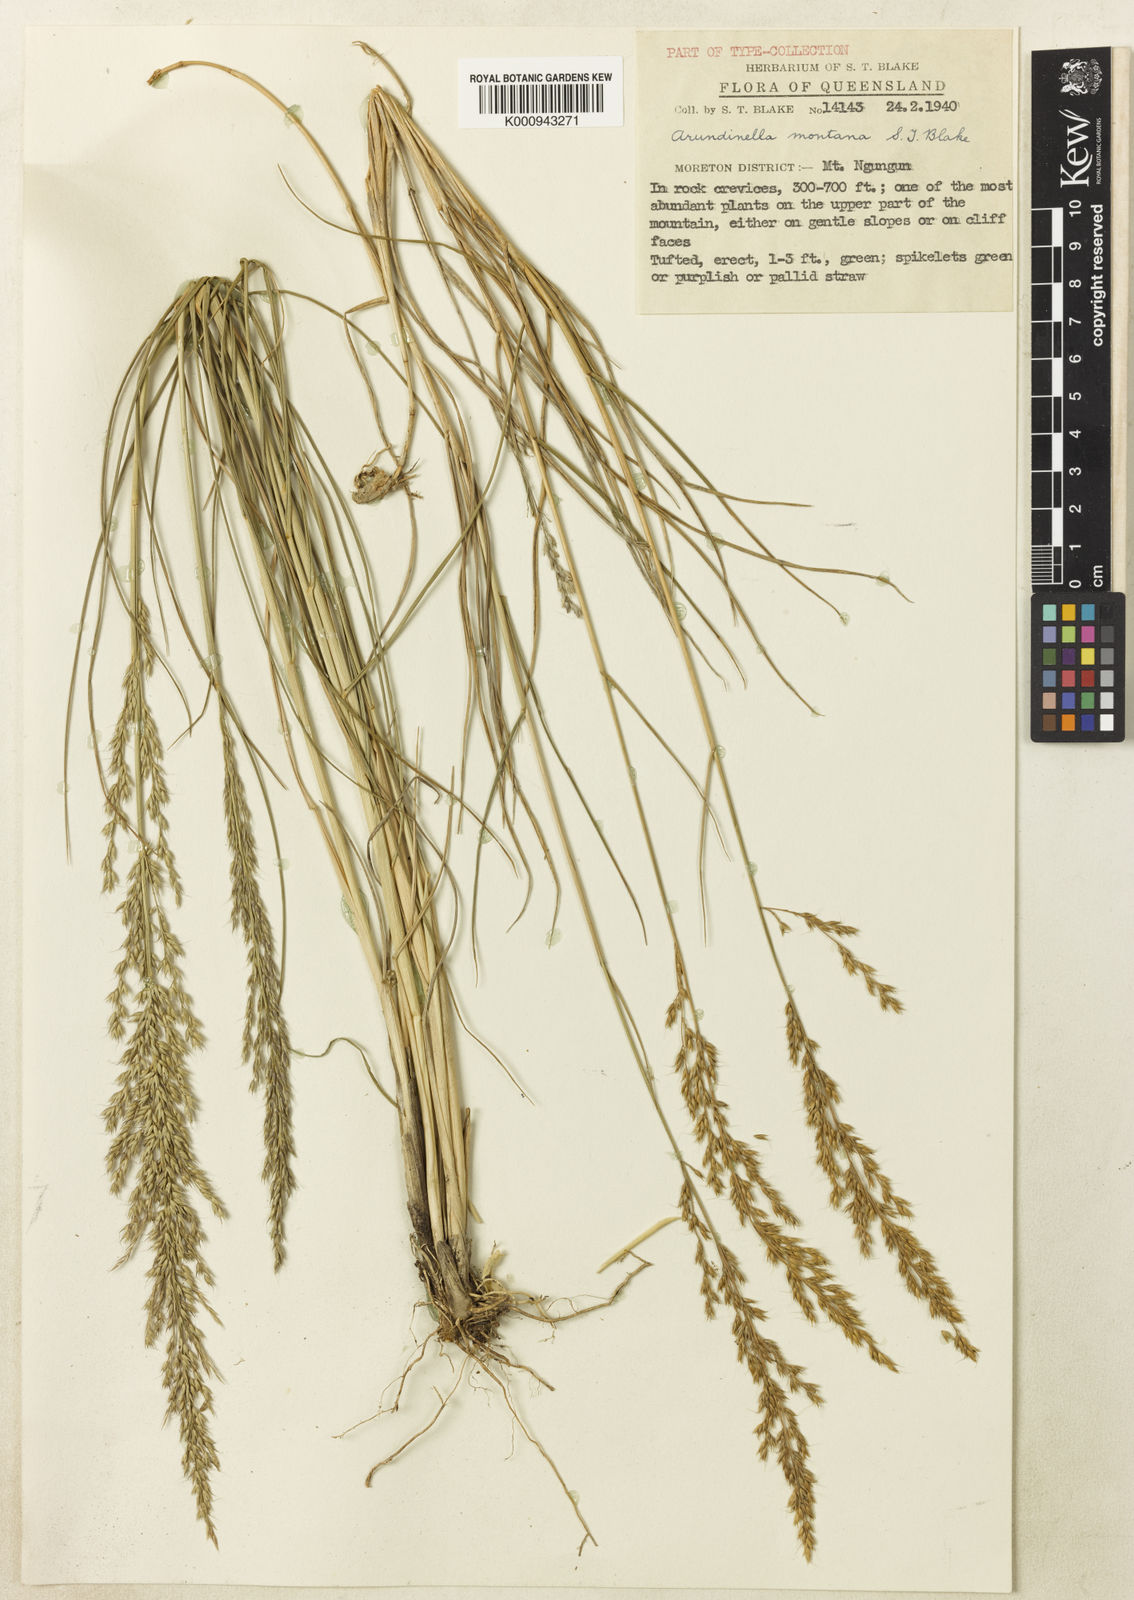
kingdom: Plantae
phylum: Tracheophyta
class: Liliopsida
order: Poales
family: Poaceae
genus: Arundinella
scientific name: Arundinella montana
